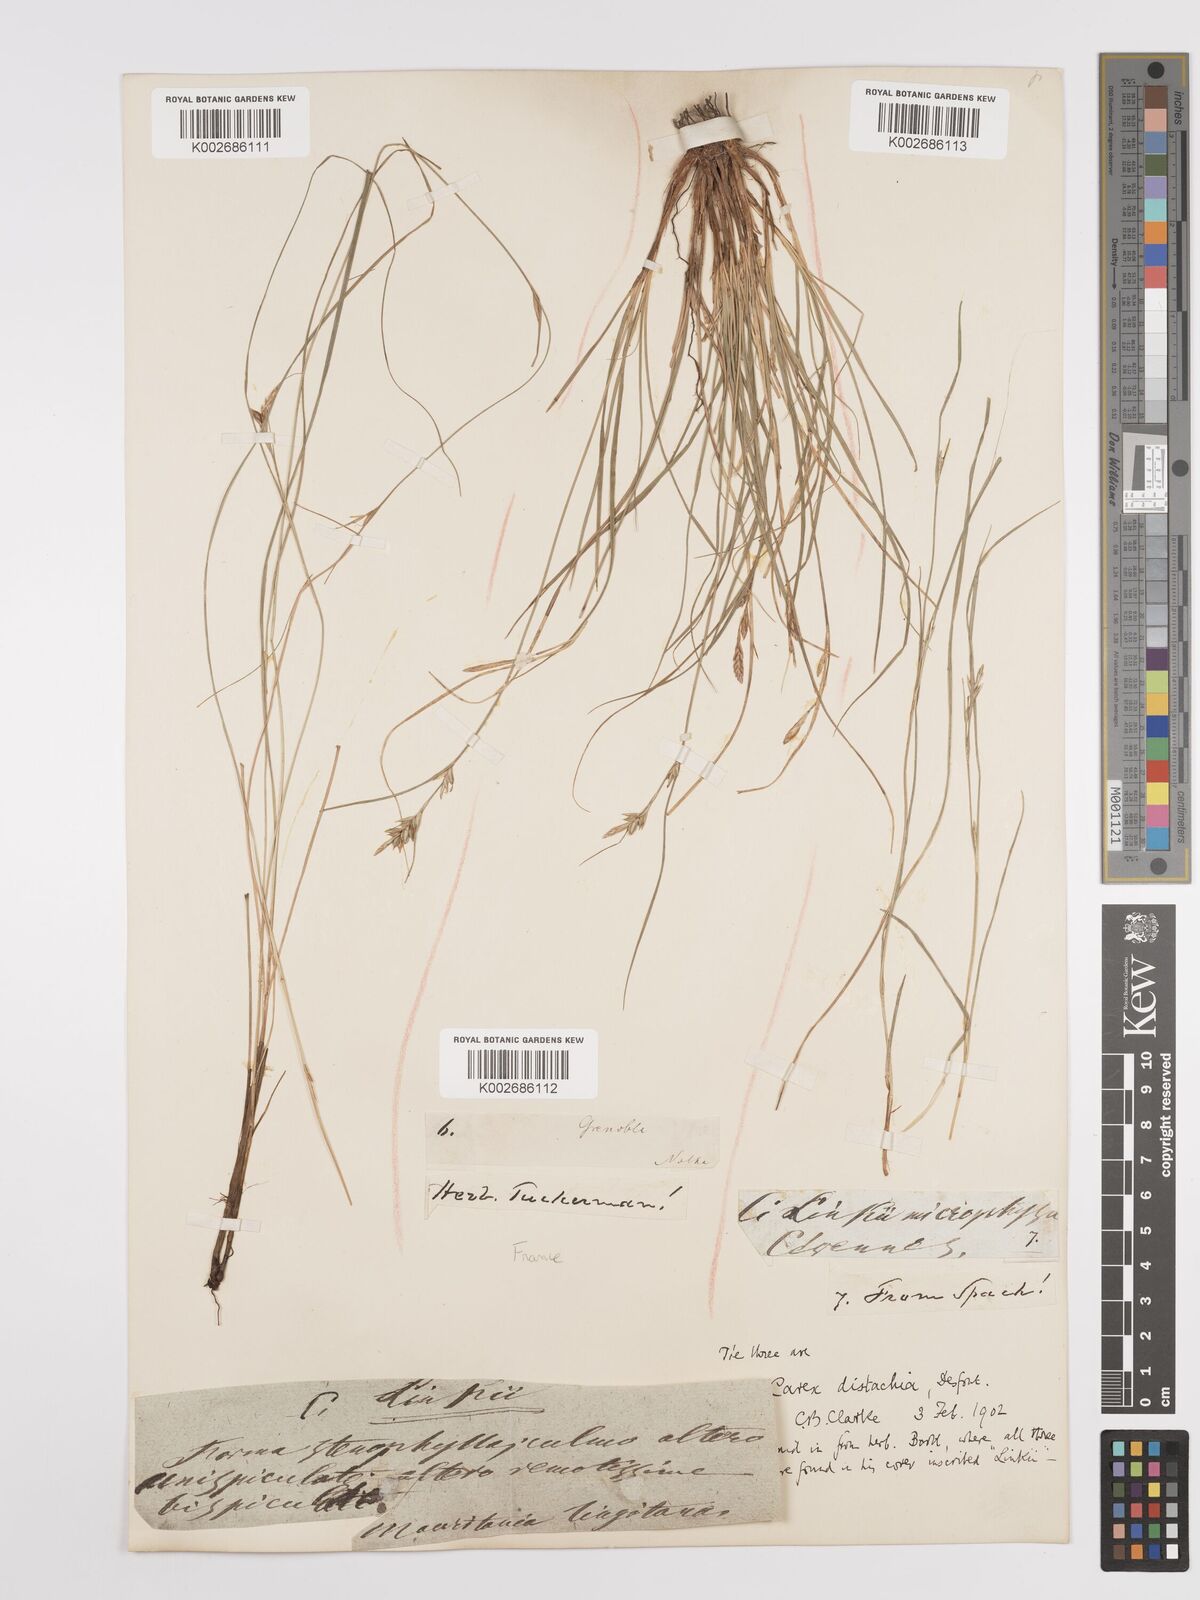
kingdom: Plantae
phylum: Tracheophyta
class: Liliopsida
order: Poales
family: Cyperaceae
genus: Carex
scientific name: Carex distachya
